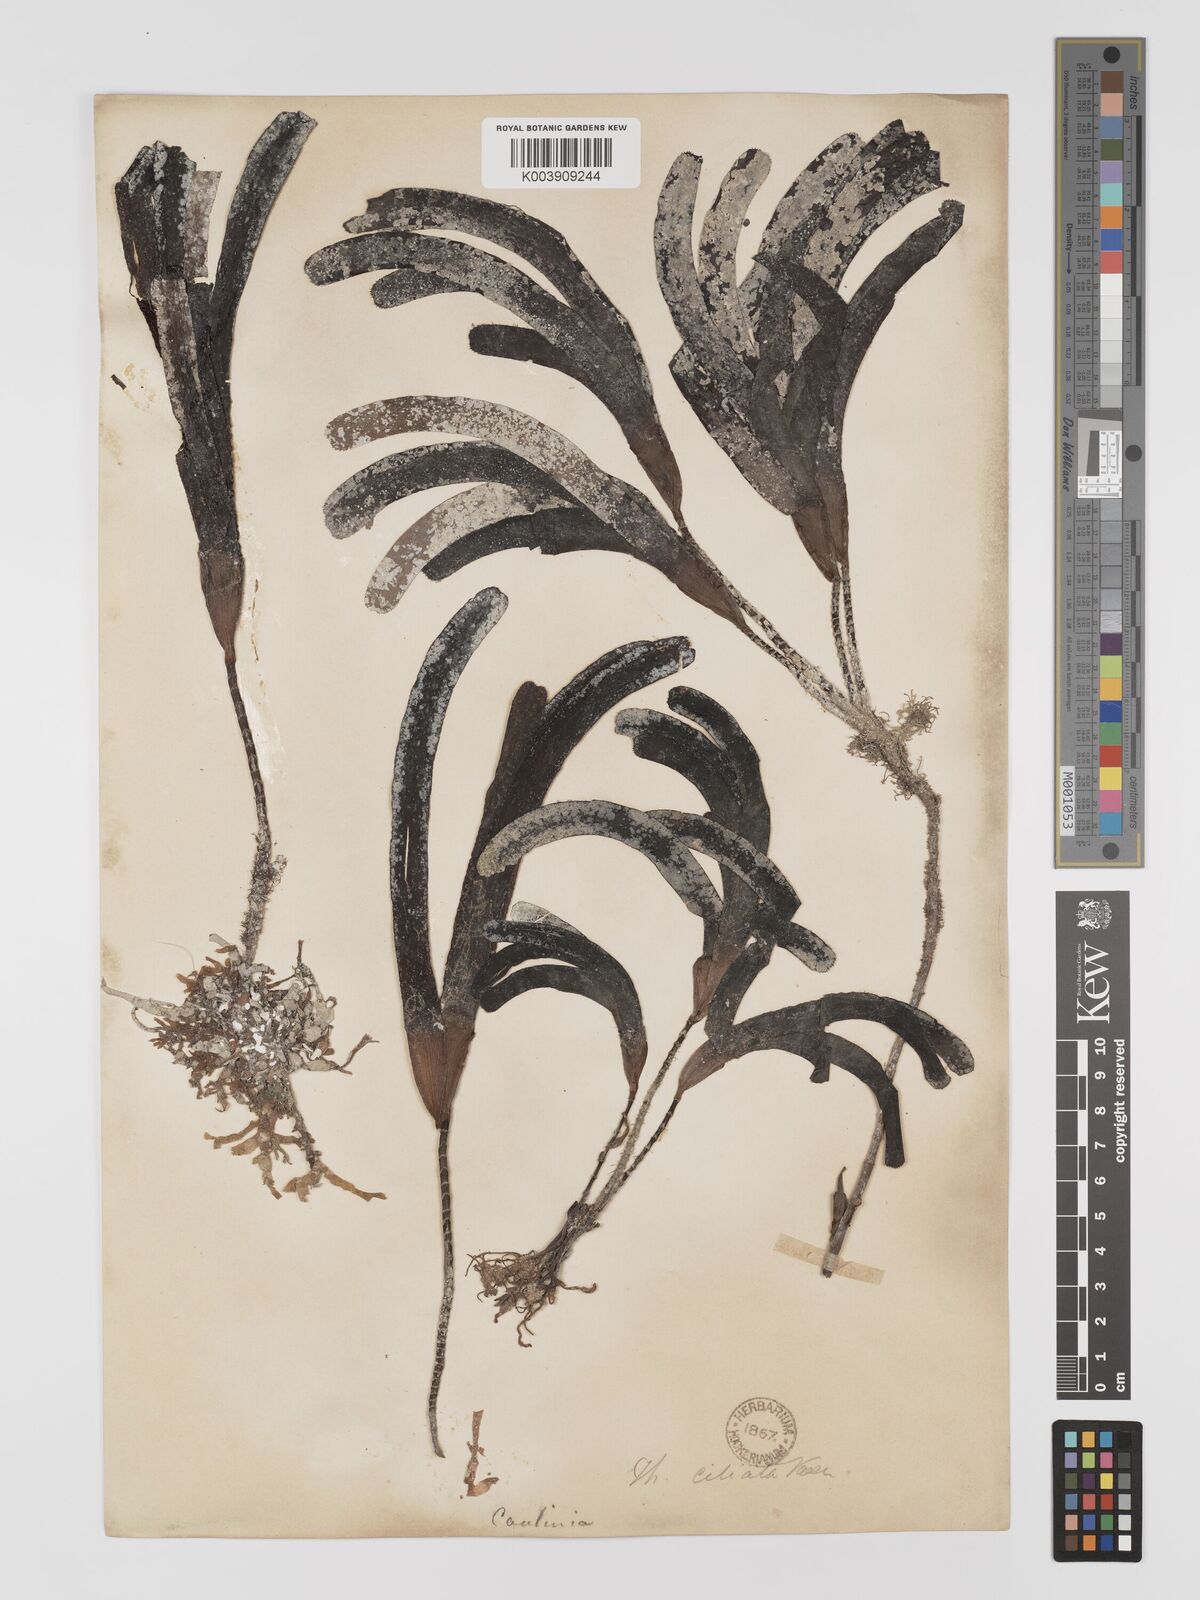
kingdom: Plantae
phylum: Tracheophyta
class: Liliopsida
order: Alismatales
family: Cymodoceaceae
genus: Thalassodendron
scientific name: Thalassodendron ciliatum
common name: Species code: tc
